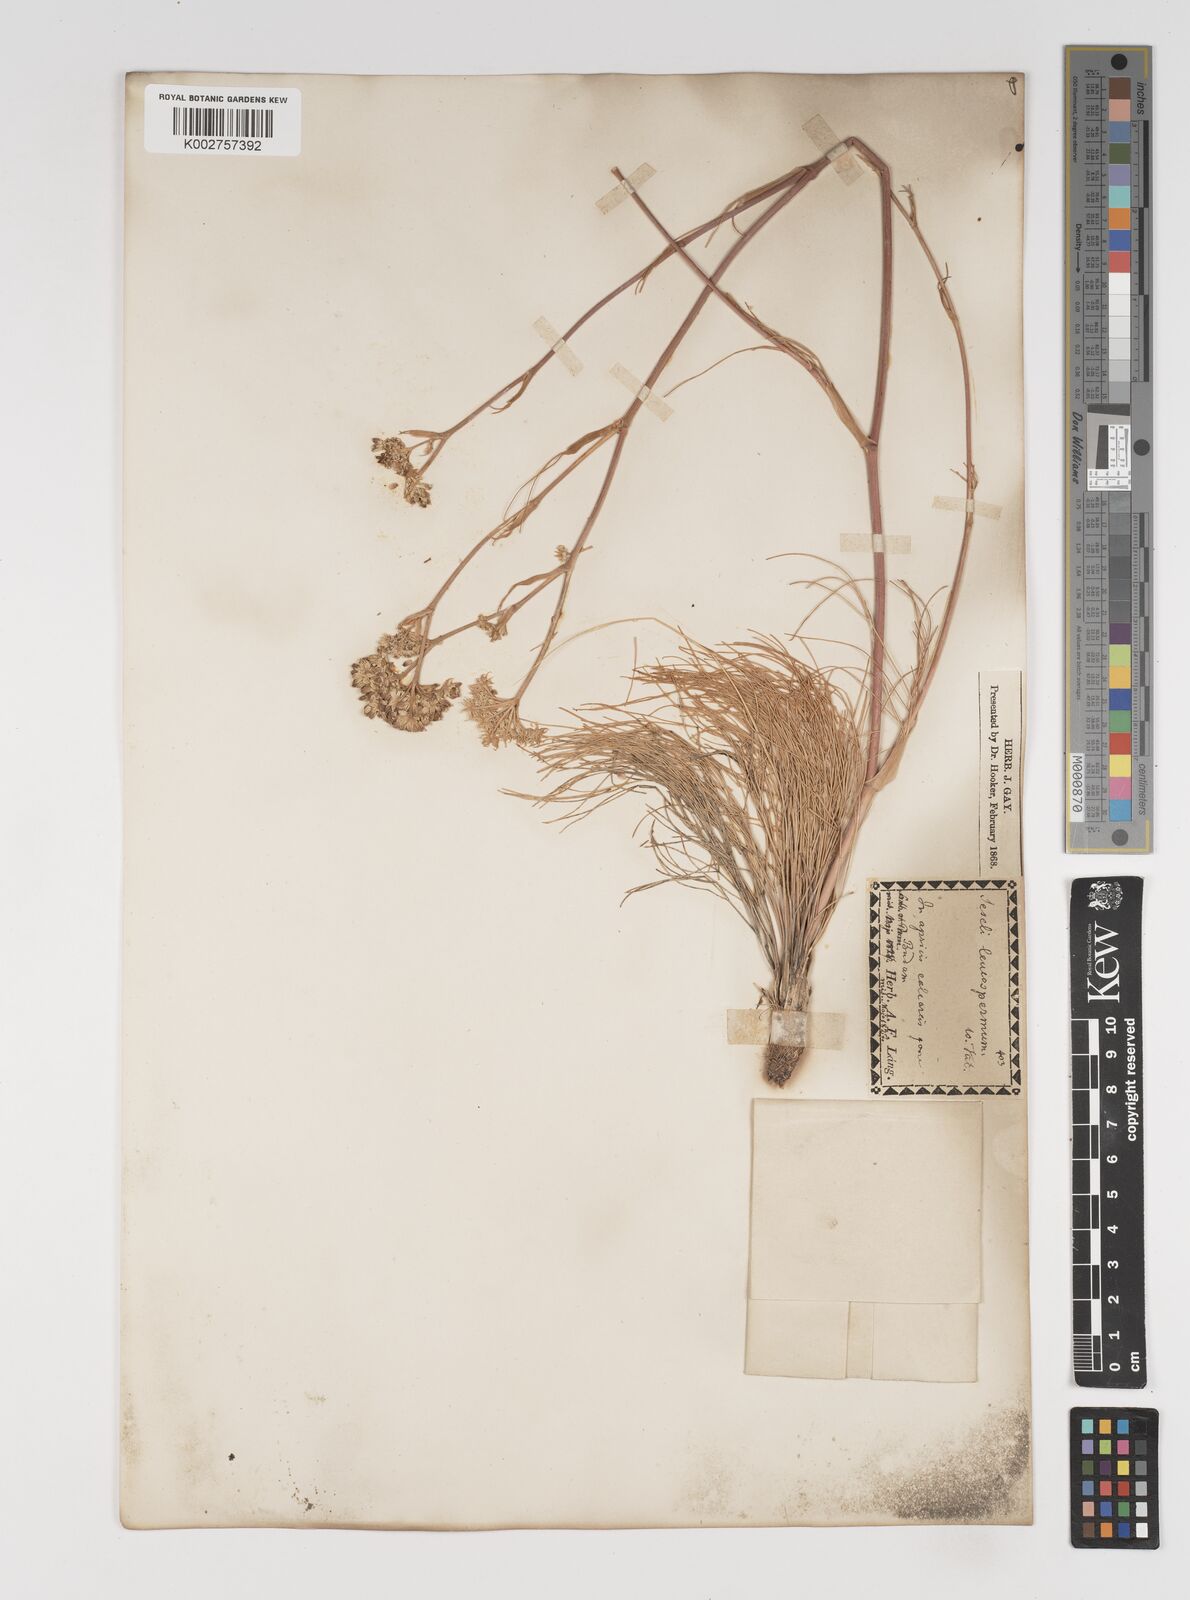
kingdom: Plantae
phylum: Tracheophyta
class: Magnoliopsida
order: Apiales
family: Apiaceae
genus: Seseli
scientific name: Seseli leucospermum
